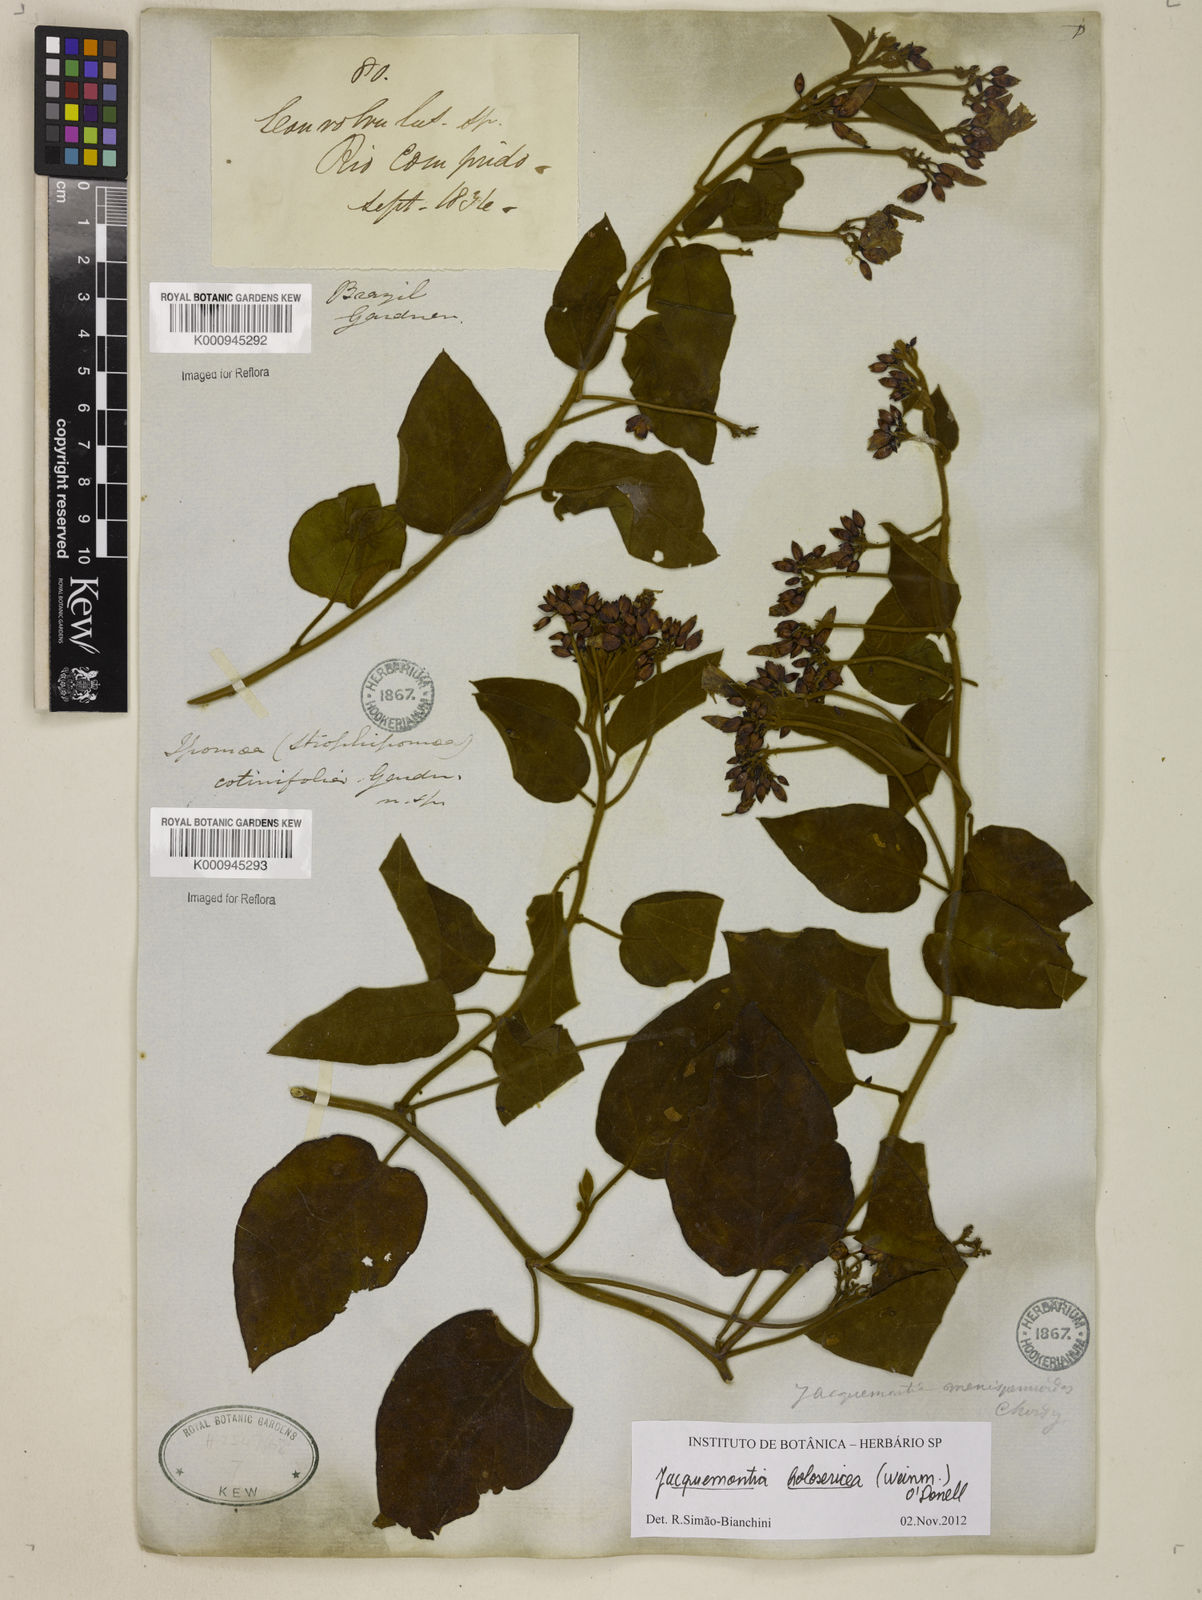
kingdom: Plantae
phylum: Tracheophyta
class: Magnoliopsida
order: Solanales
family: Convolvulaceae
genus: Jacquemontia
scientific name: Jacquemontia holosericea
